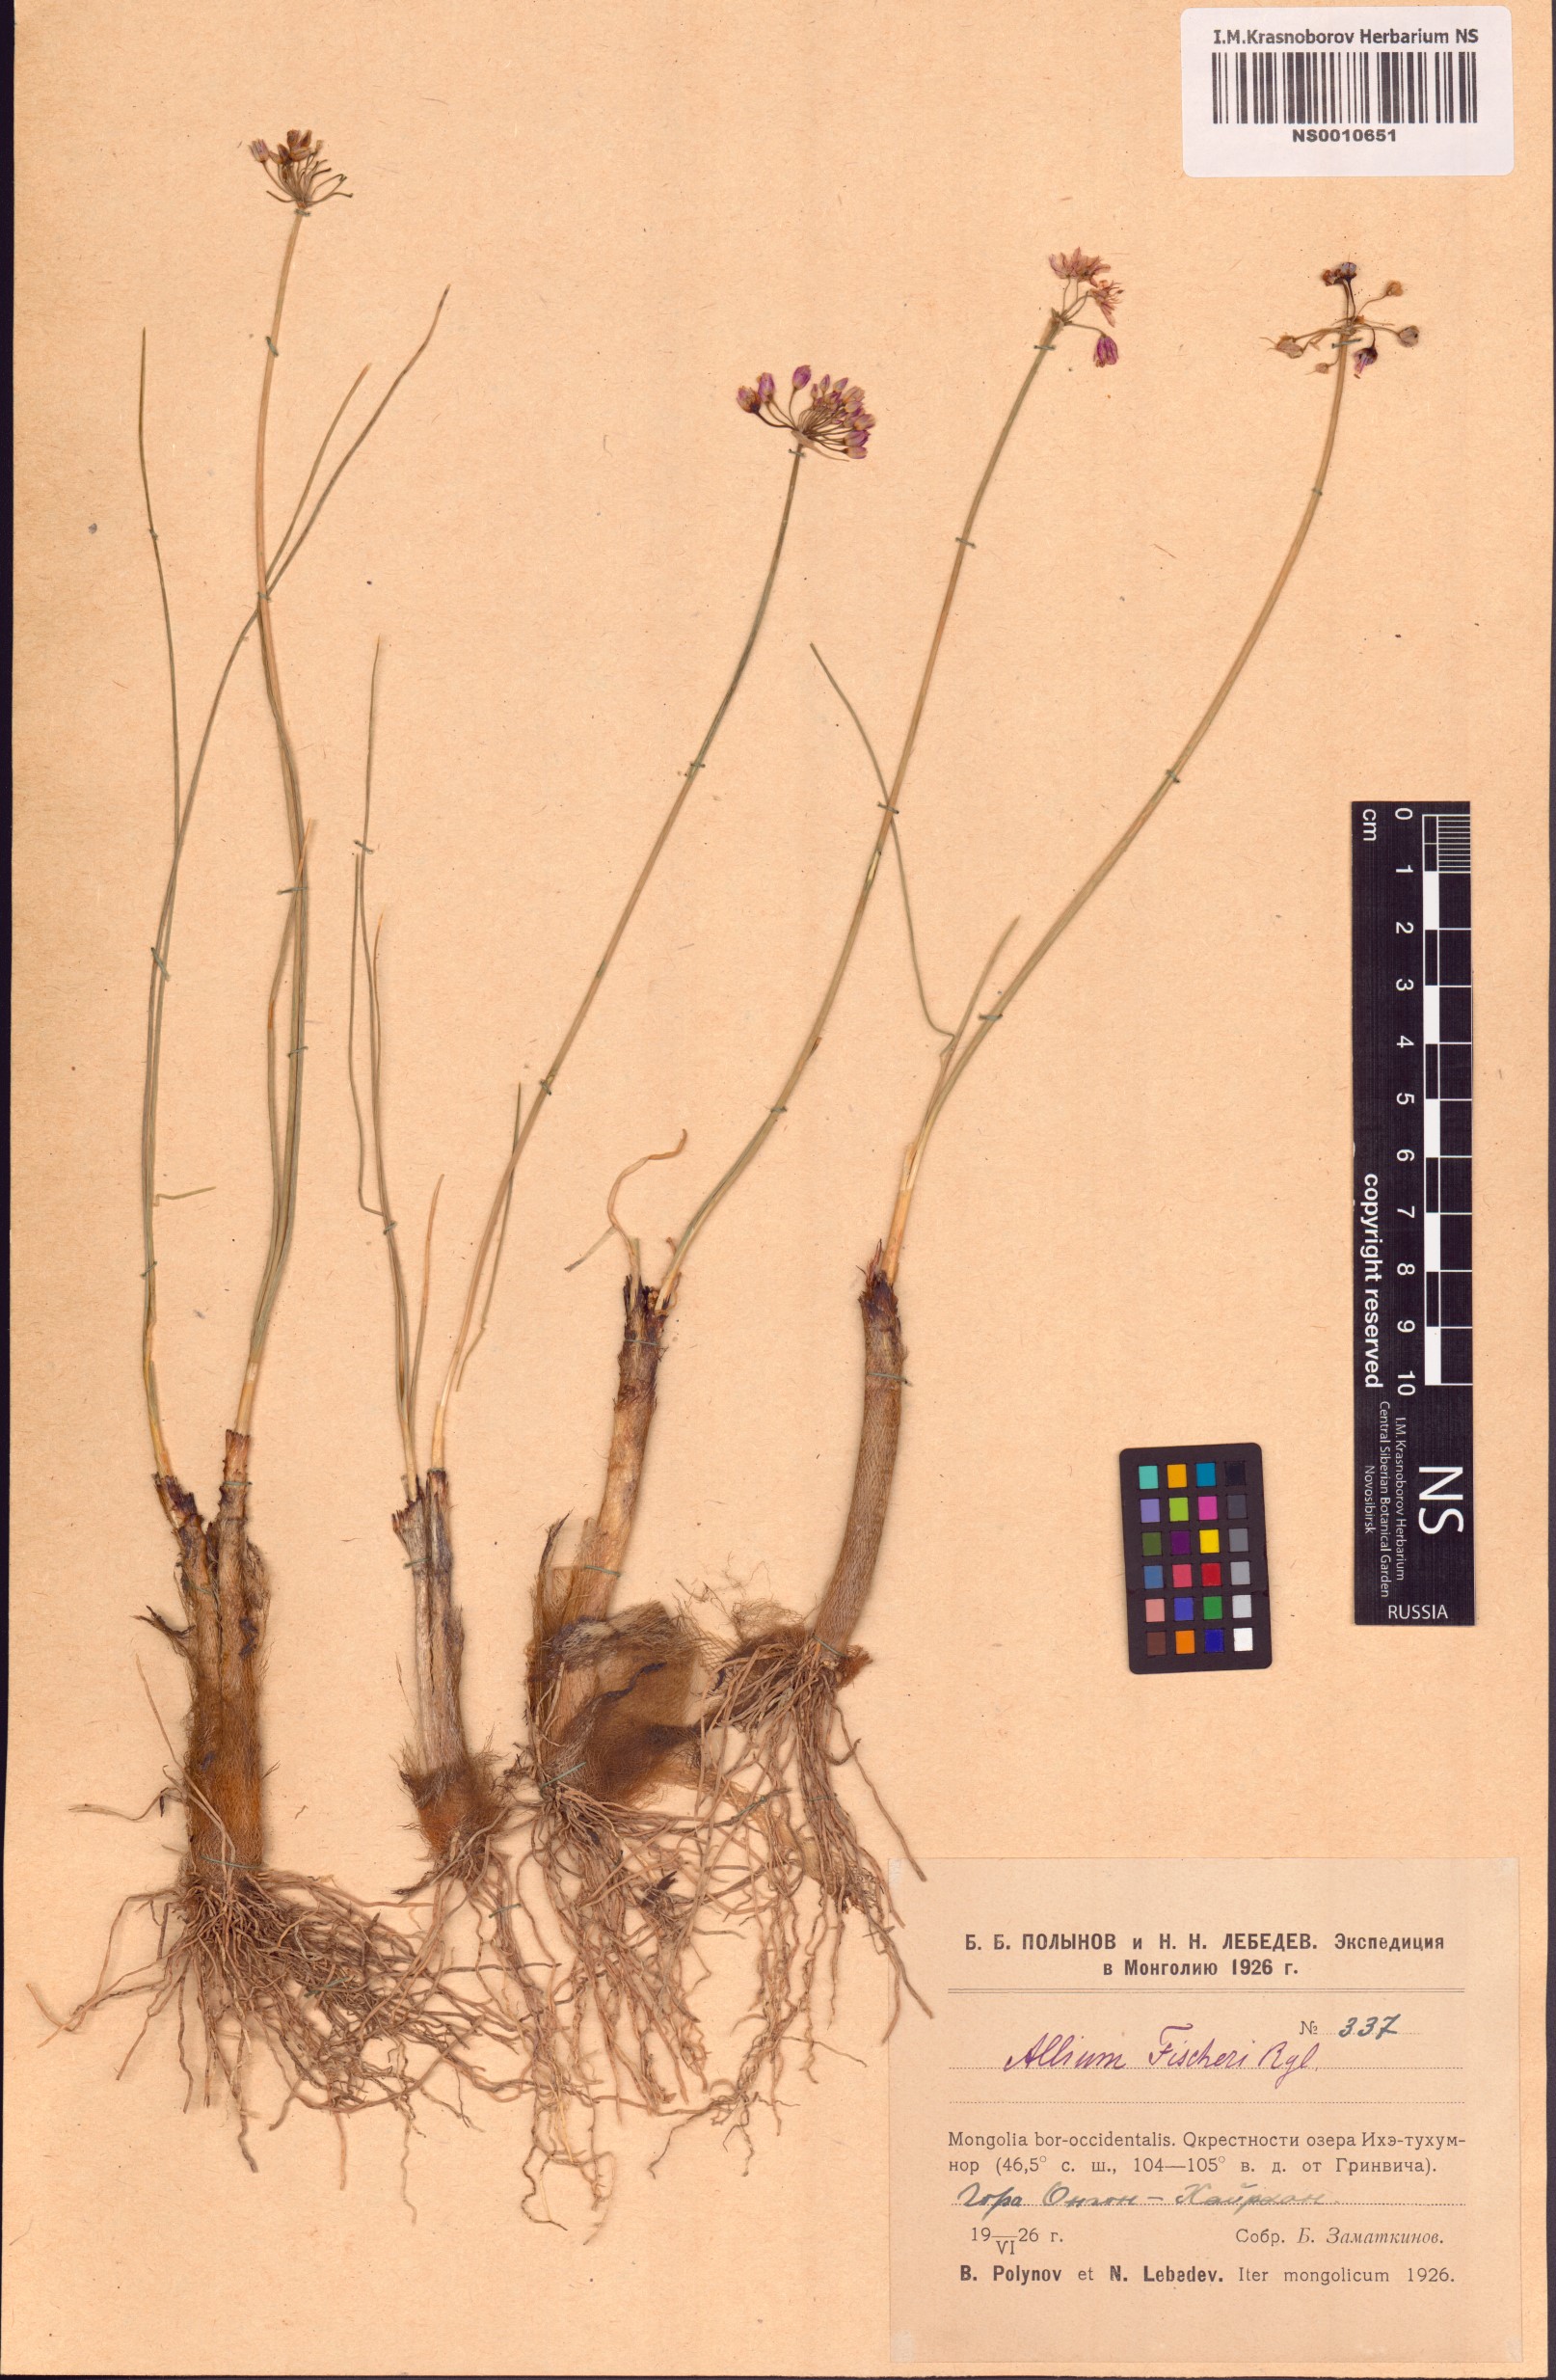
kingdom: Plantae
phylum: Tracheophyta
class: Liliopsida
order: Asparagales
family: Amaryllidaceae
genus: Allium
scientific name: Allium eduardi
